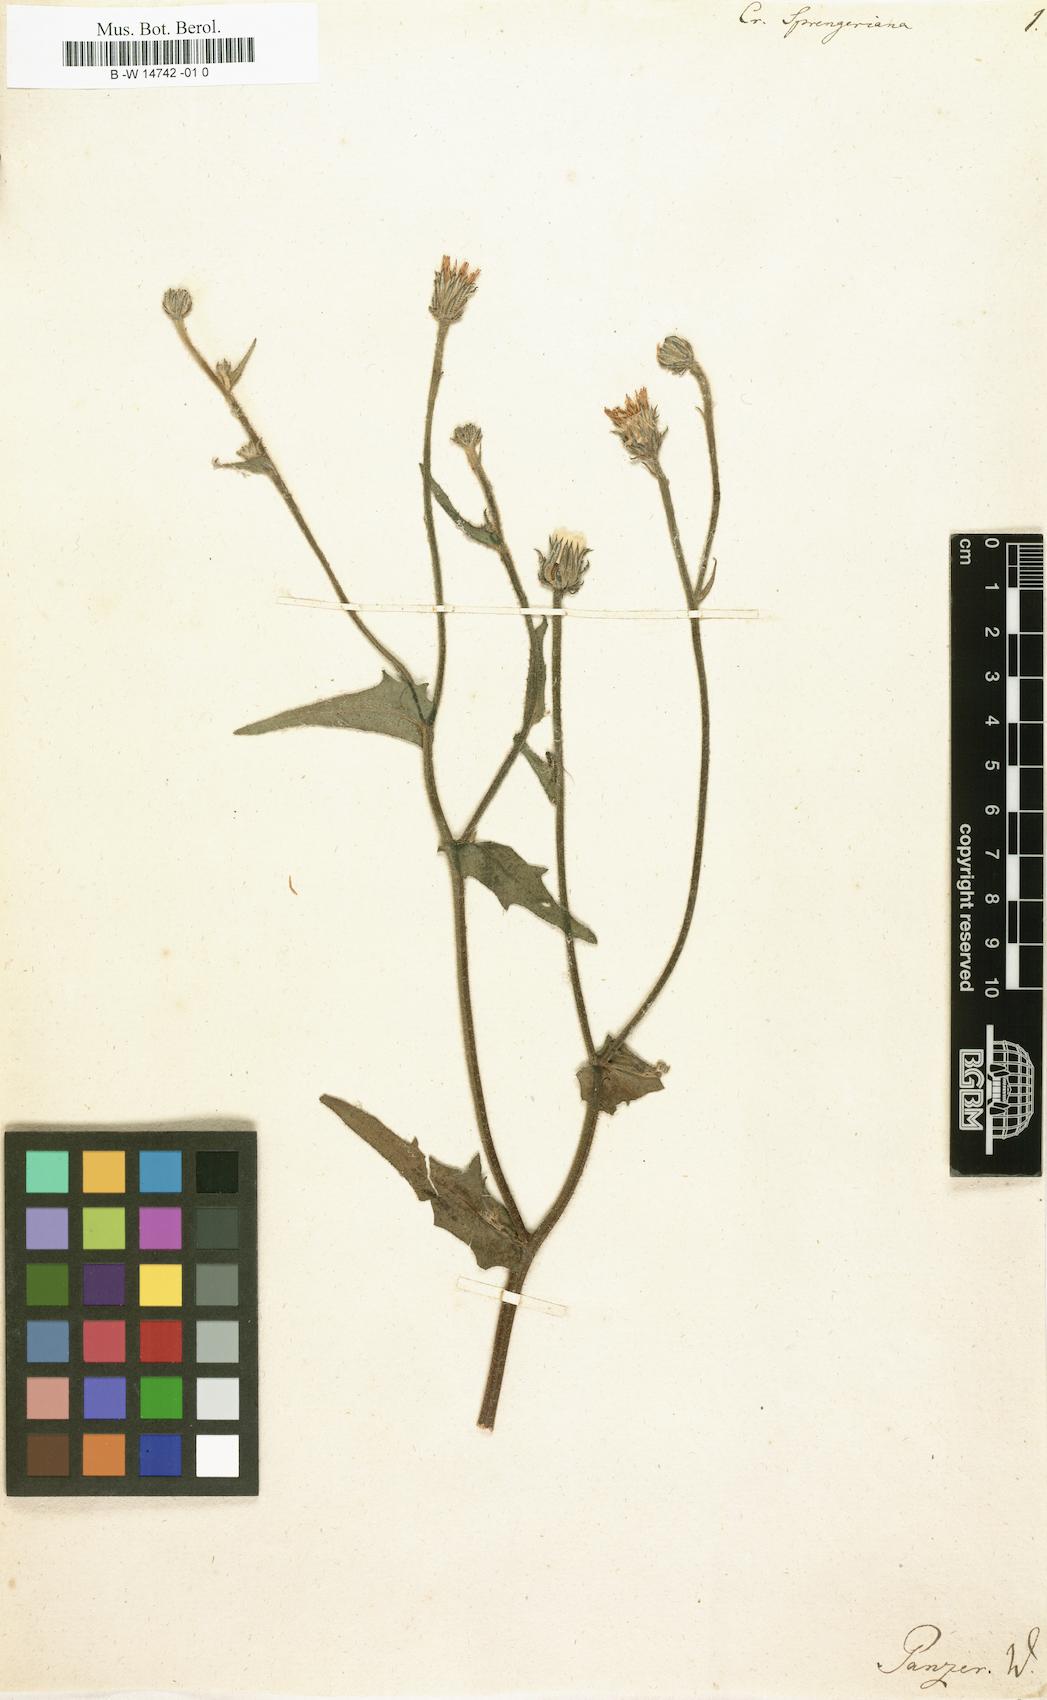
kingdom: Plantae
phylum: Tracheophyta
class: Magnoliopsida
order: Asterales
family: Asteraceae
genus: Picris
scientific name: Picris rhagadioloides
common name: Oxtongue
